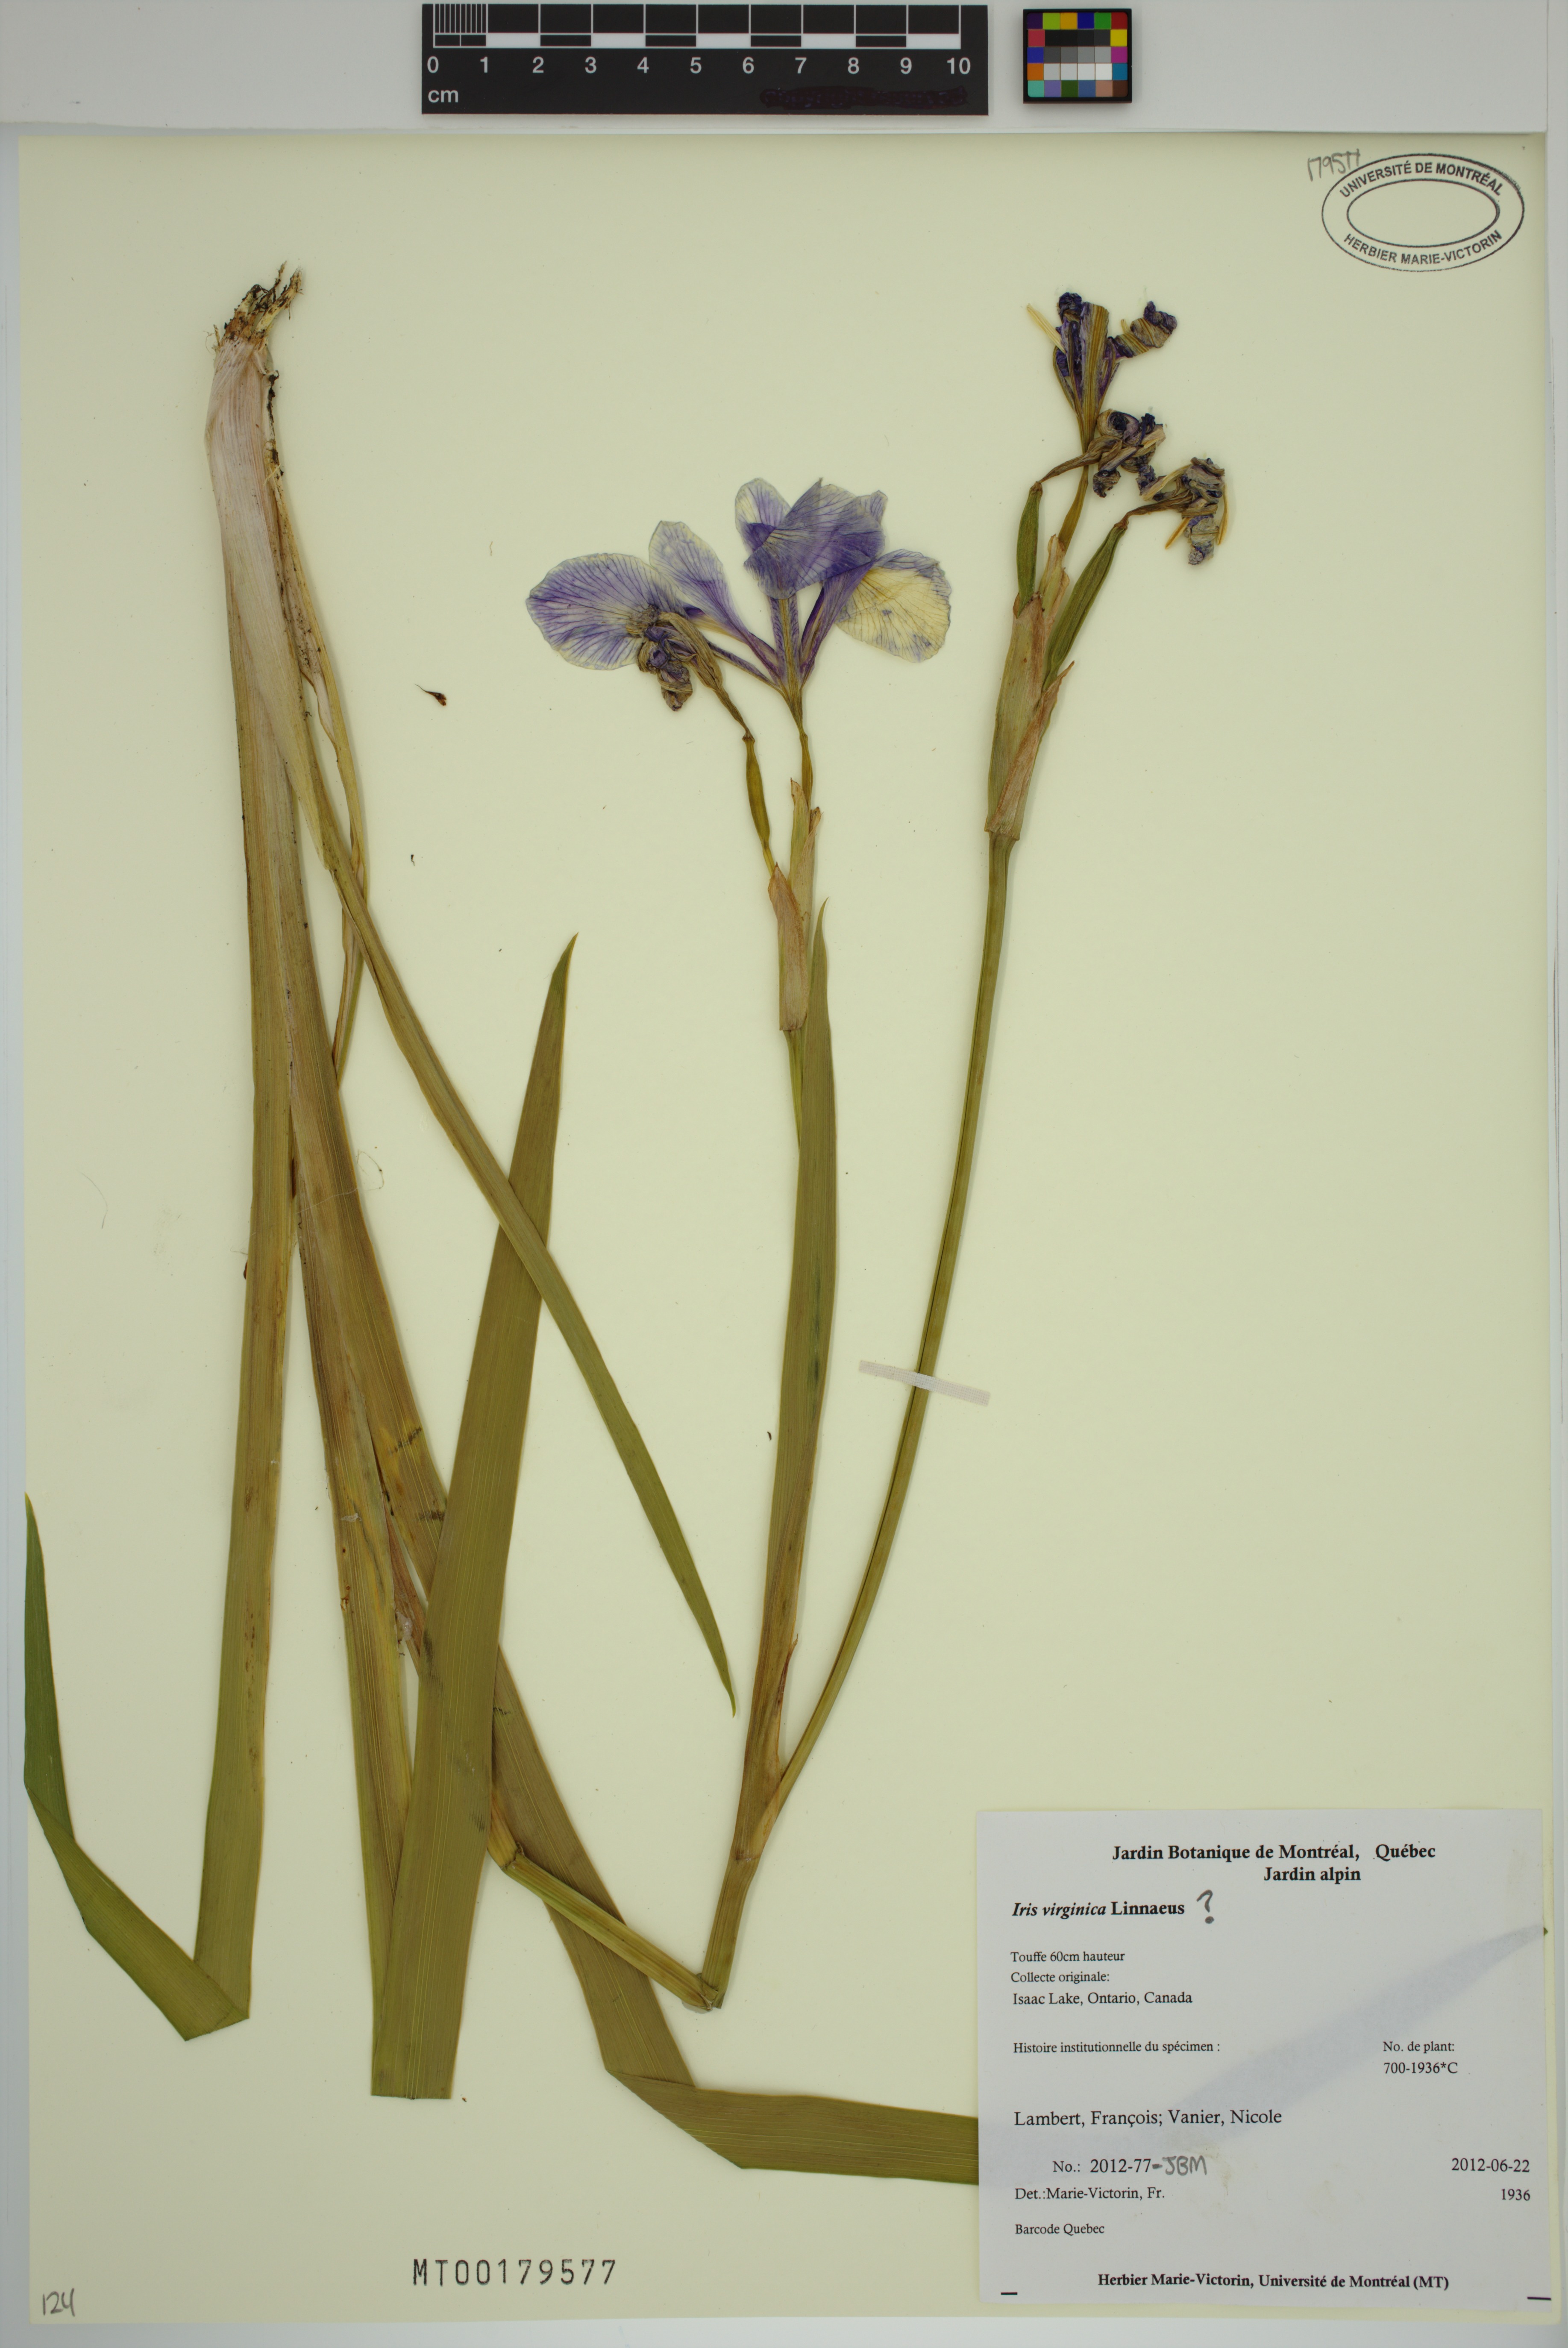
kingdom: Plantae
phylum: Tracheophyta
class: Liliopsida
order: Asparagales
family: Iridaceae
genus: Iris
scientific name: Iris virginica
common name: Southern blue flag
